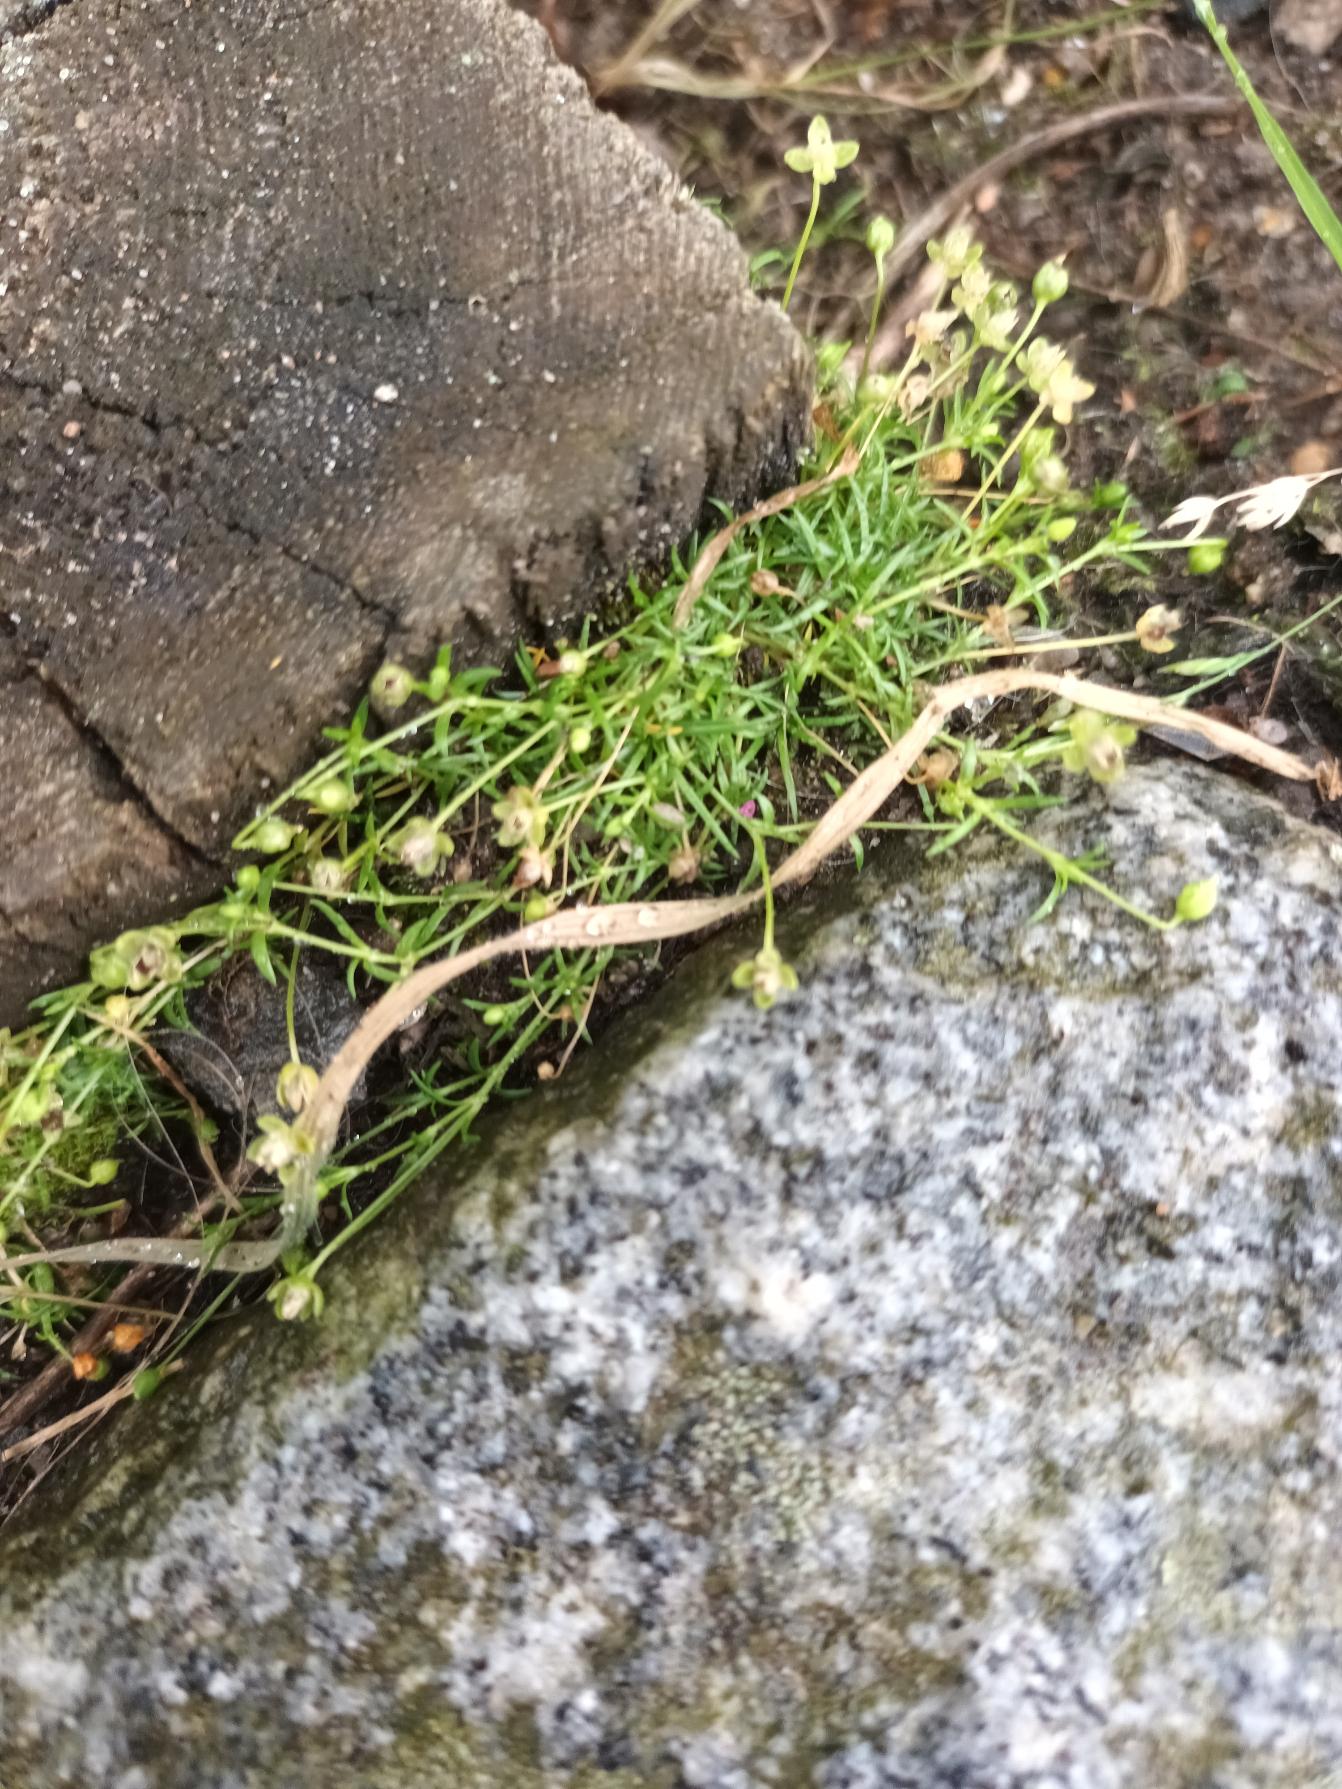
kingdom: Plantae
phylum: Tracheophyta
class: Magnoliopsida
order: Caryophyllales
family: Caryophyllaceae
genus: Sagina
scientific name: Sagina procumbens
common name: Almindelig firling
